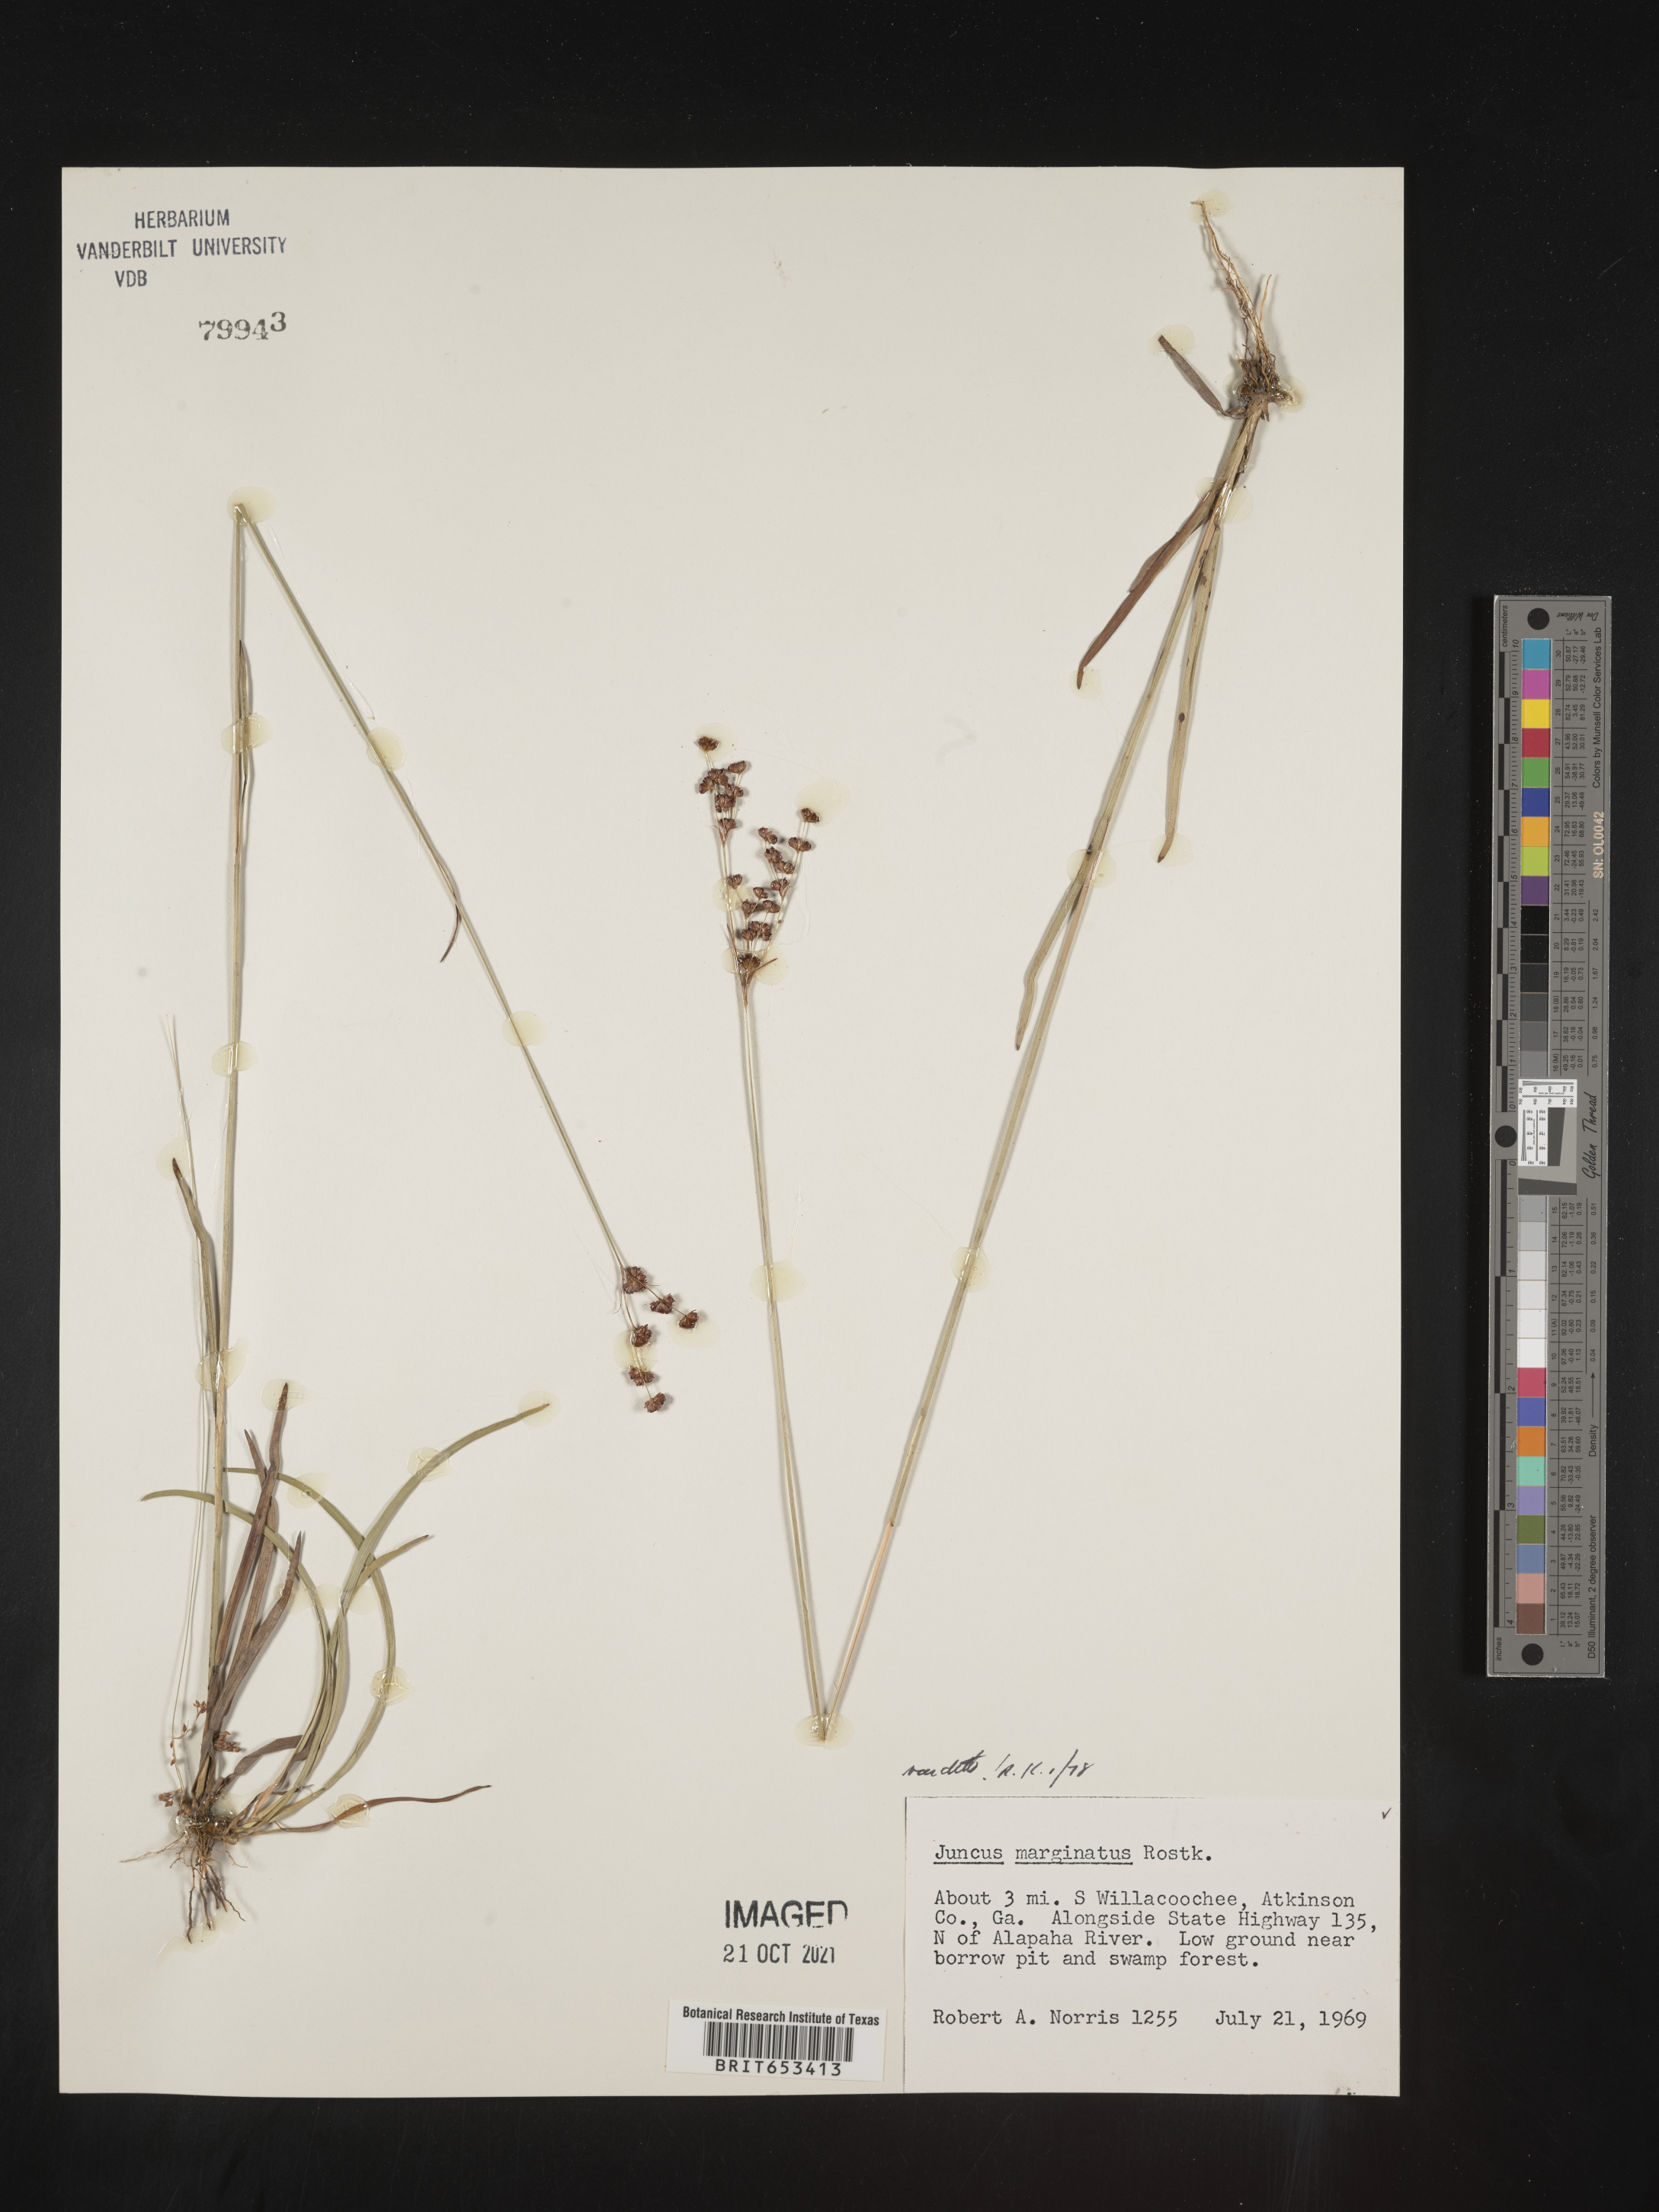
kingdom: Plantae
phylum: Tracheophyta
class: Liliopsida
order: Poales
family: Juncaceae
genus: Juncus
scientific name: Juncus marginatus
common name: Grass-leaf rush
